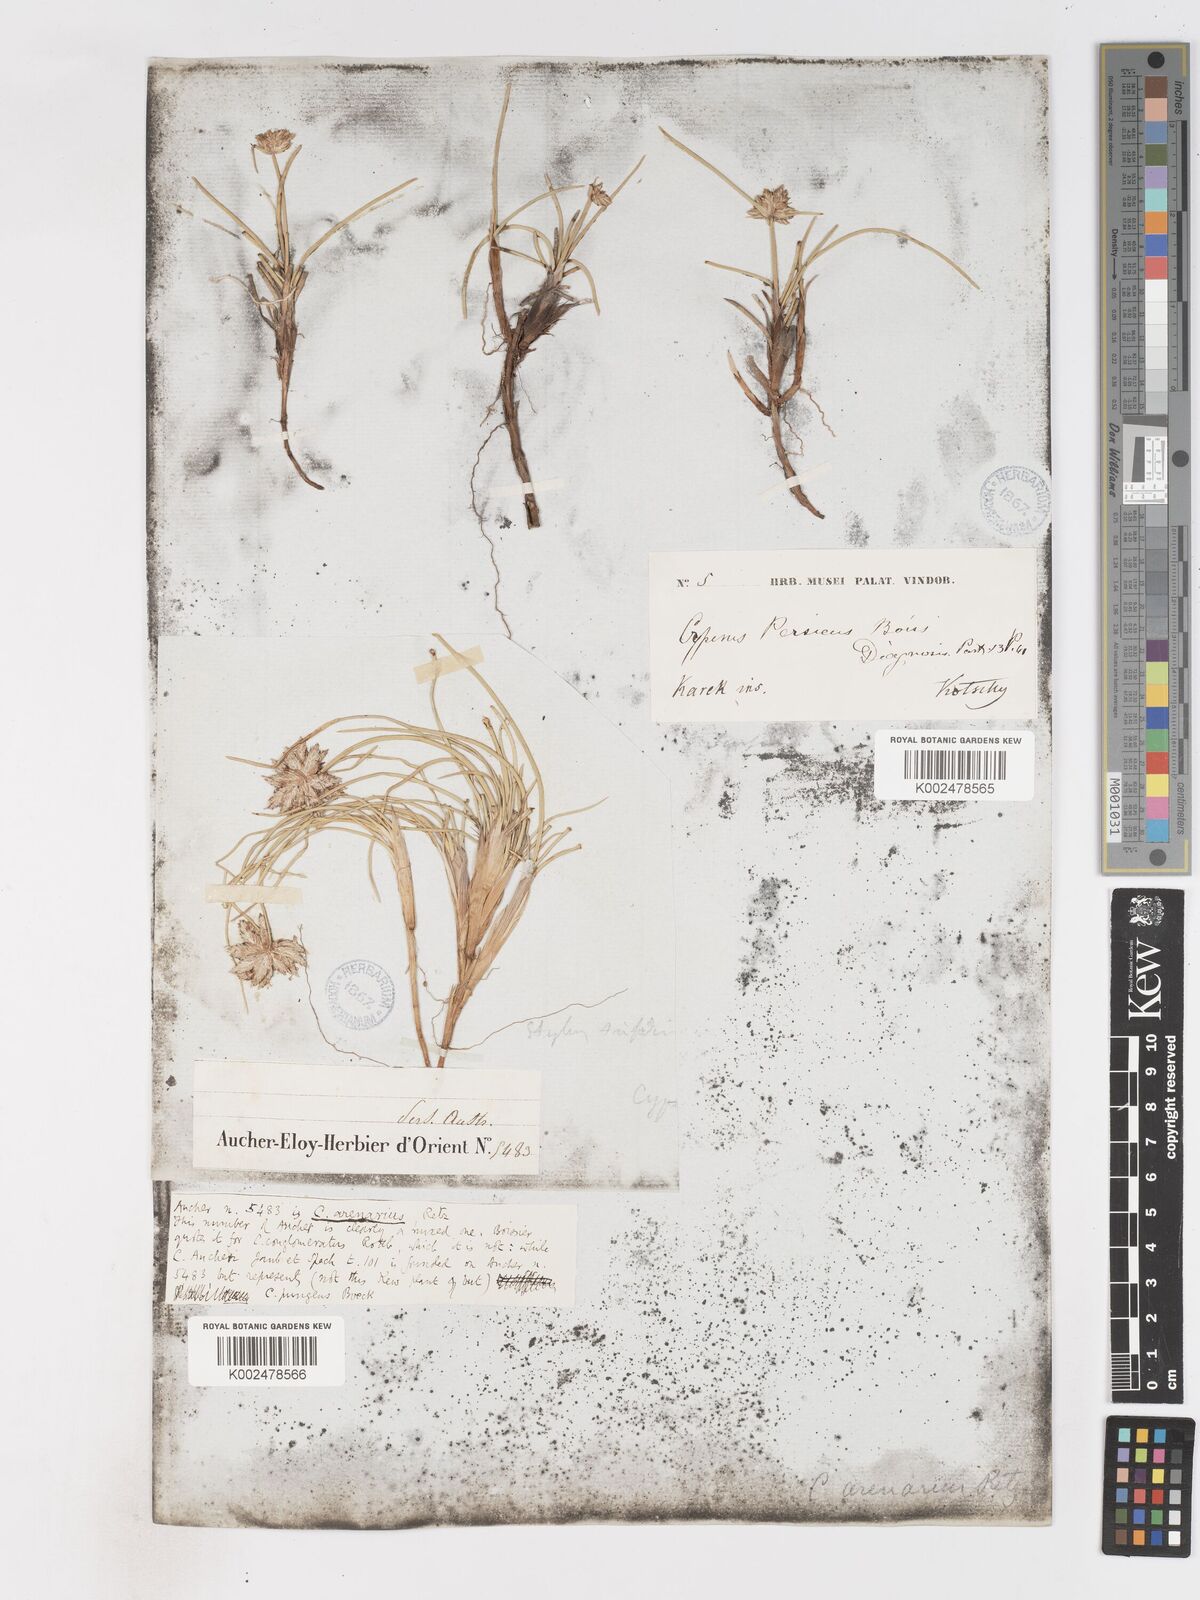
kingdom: Plantae
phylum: Tracheophyta
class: Liliopsida
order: Poales
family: Cyperaceae
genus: Cyperus
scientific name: Cyperus arenarius
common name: Dwarf sedge
